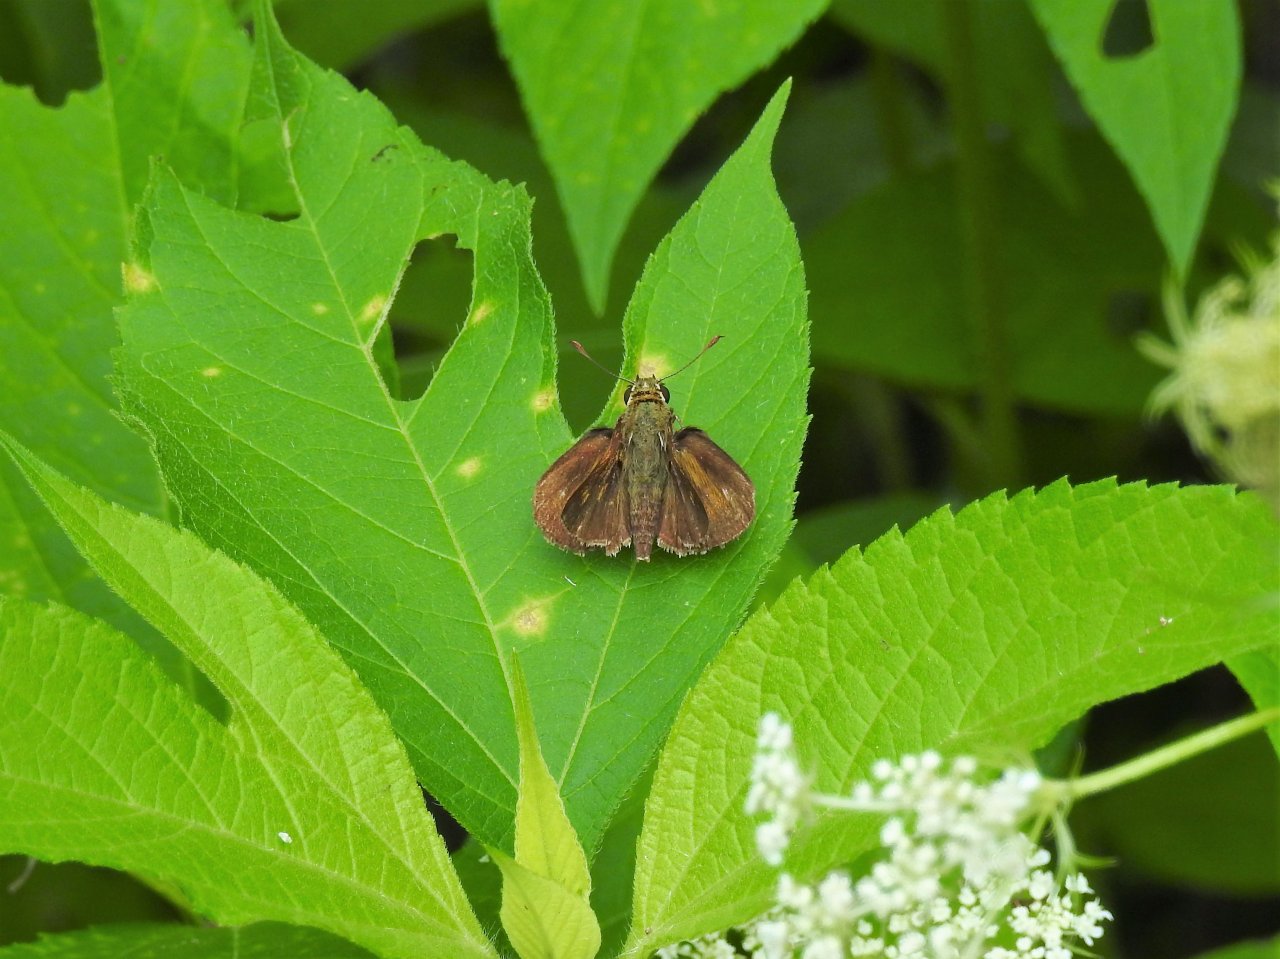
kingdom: Animalia
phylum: Arthropoda
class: Insecta
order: Lepidoptera
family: Hesperiidae
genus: Euphyes
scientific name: Euphyes vestris
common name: Dun Skipper
